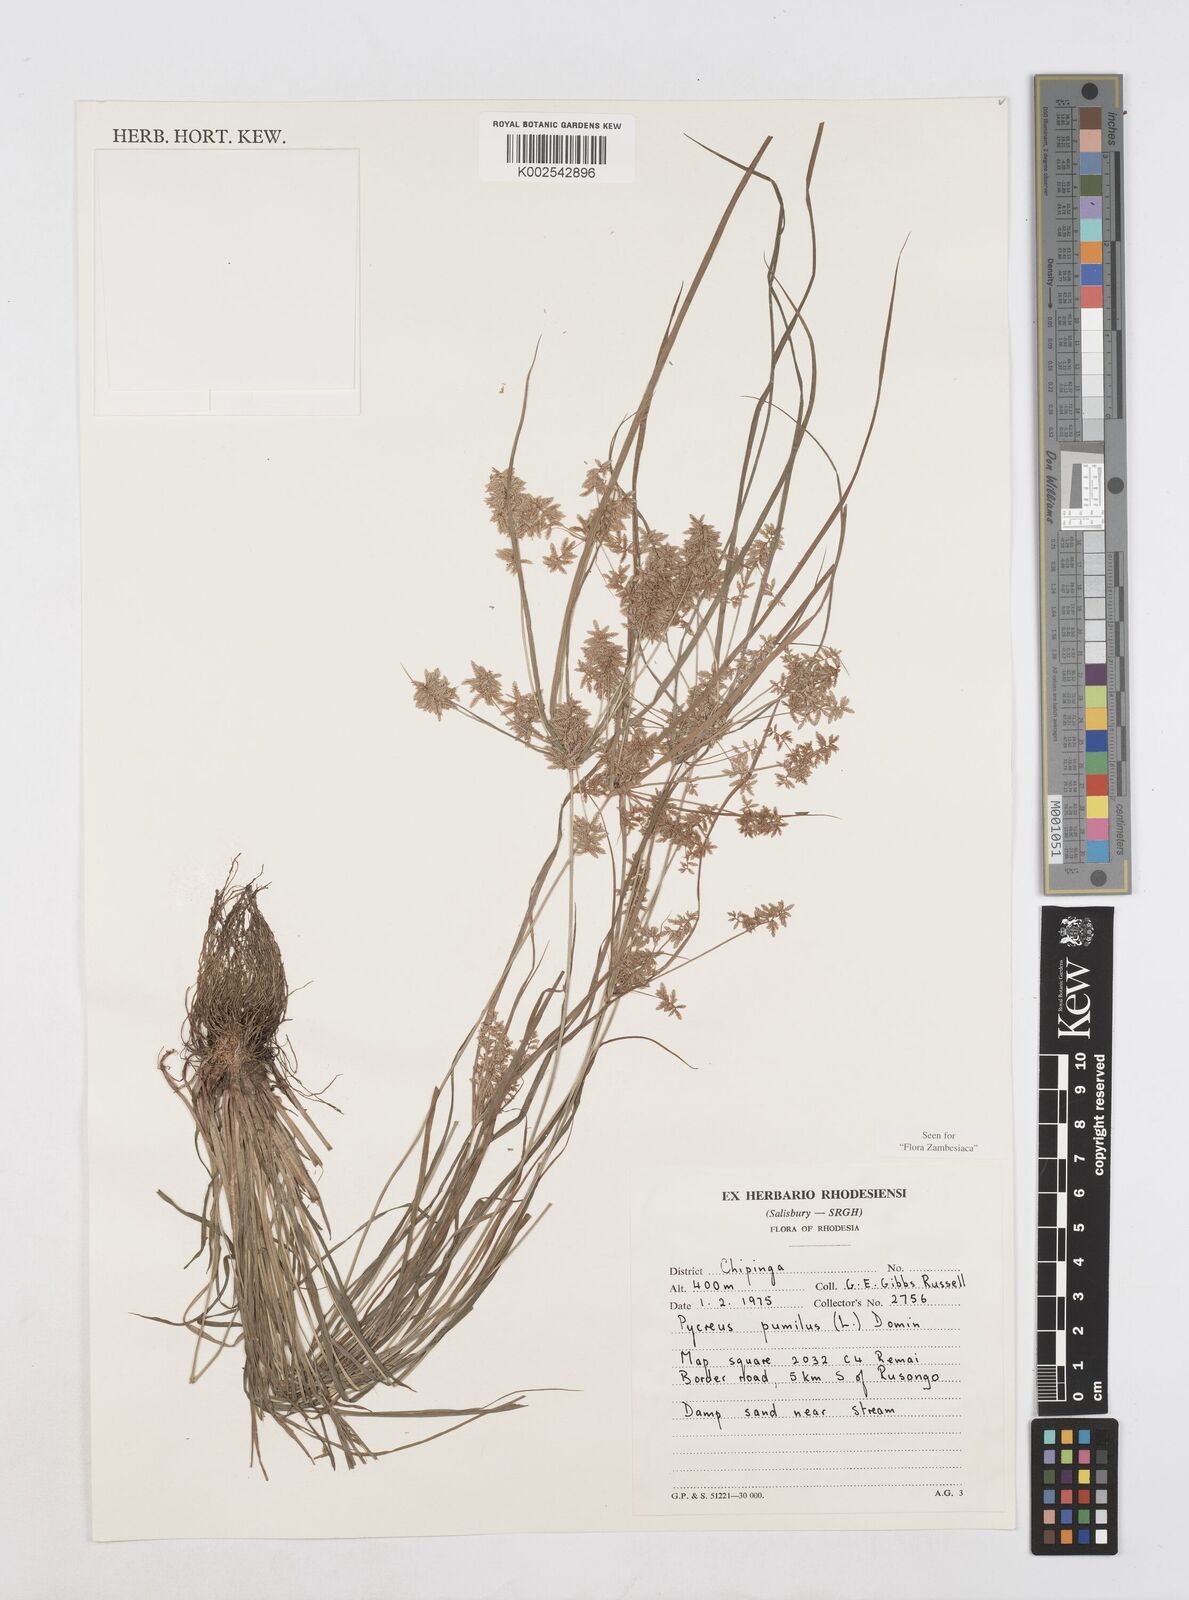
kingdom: Plantae
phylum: Tracheophyta
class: Liliopsida
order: Poales
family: Cyperaceae
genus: Cyperus
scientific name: Cyperus pumilus
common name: Low flatsedge
